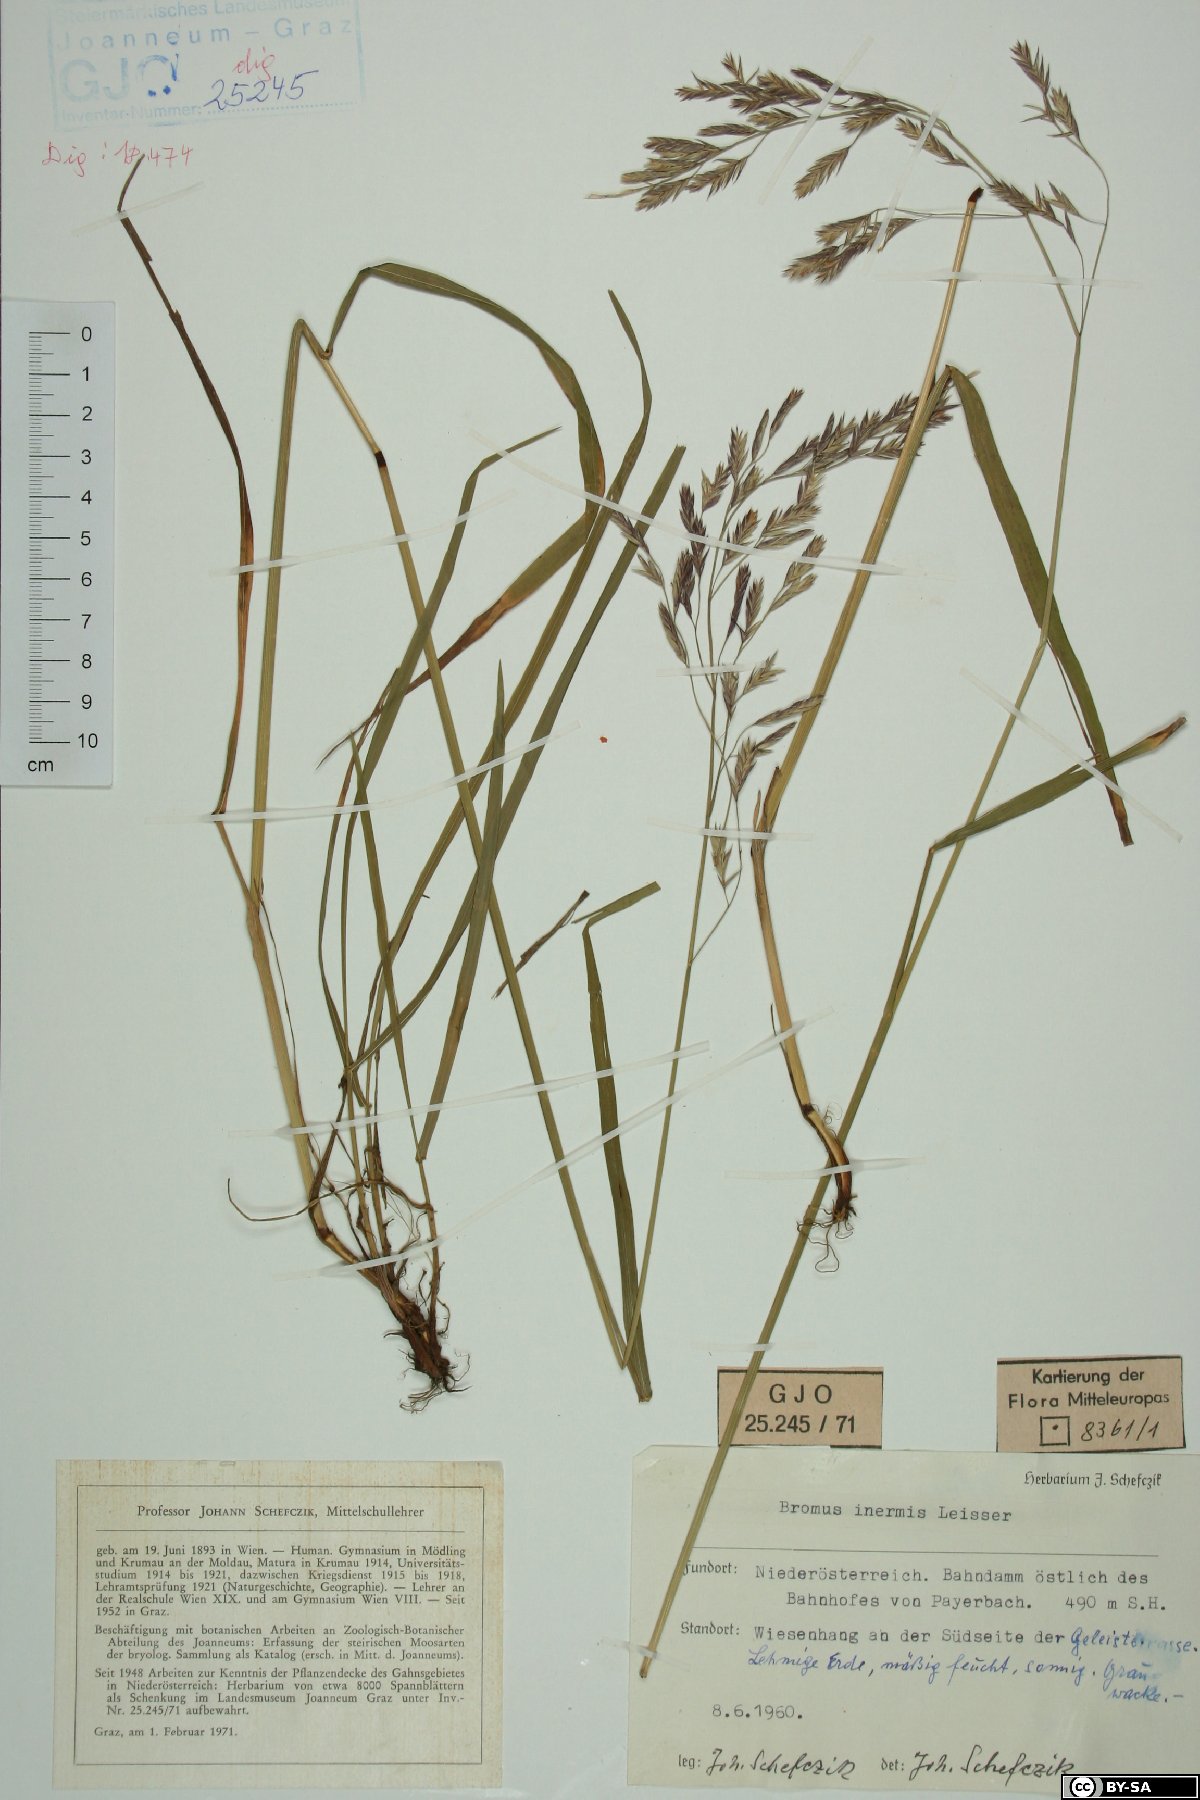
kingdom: Plantae
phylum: Tracheophyta
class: Liliopsida
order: Poales
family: Poaceae
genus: Bromus
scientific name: Bromus inermis
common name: Smooth brome
